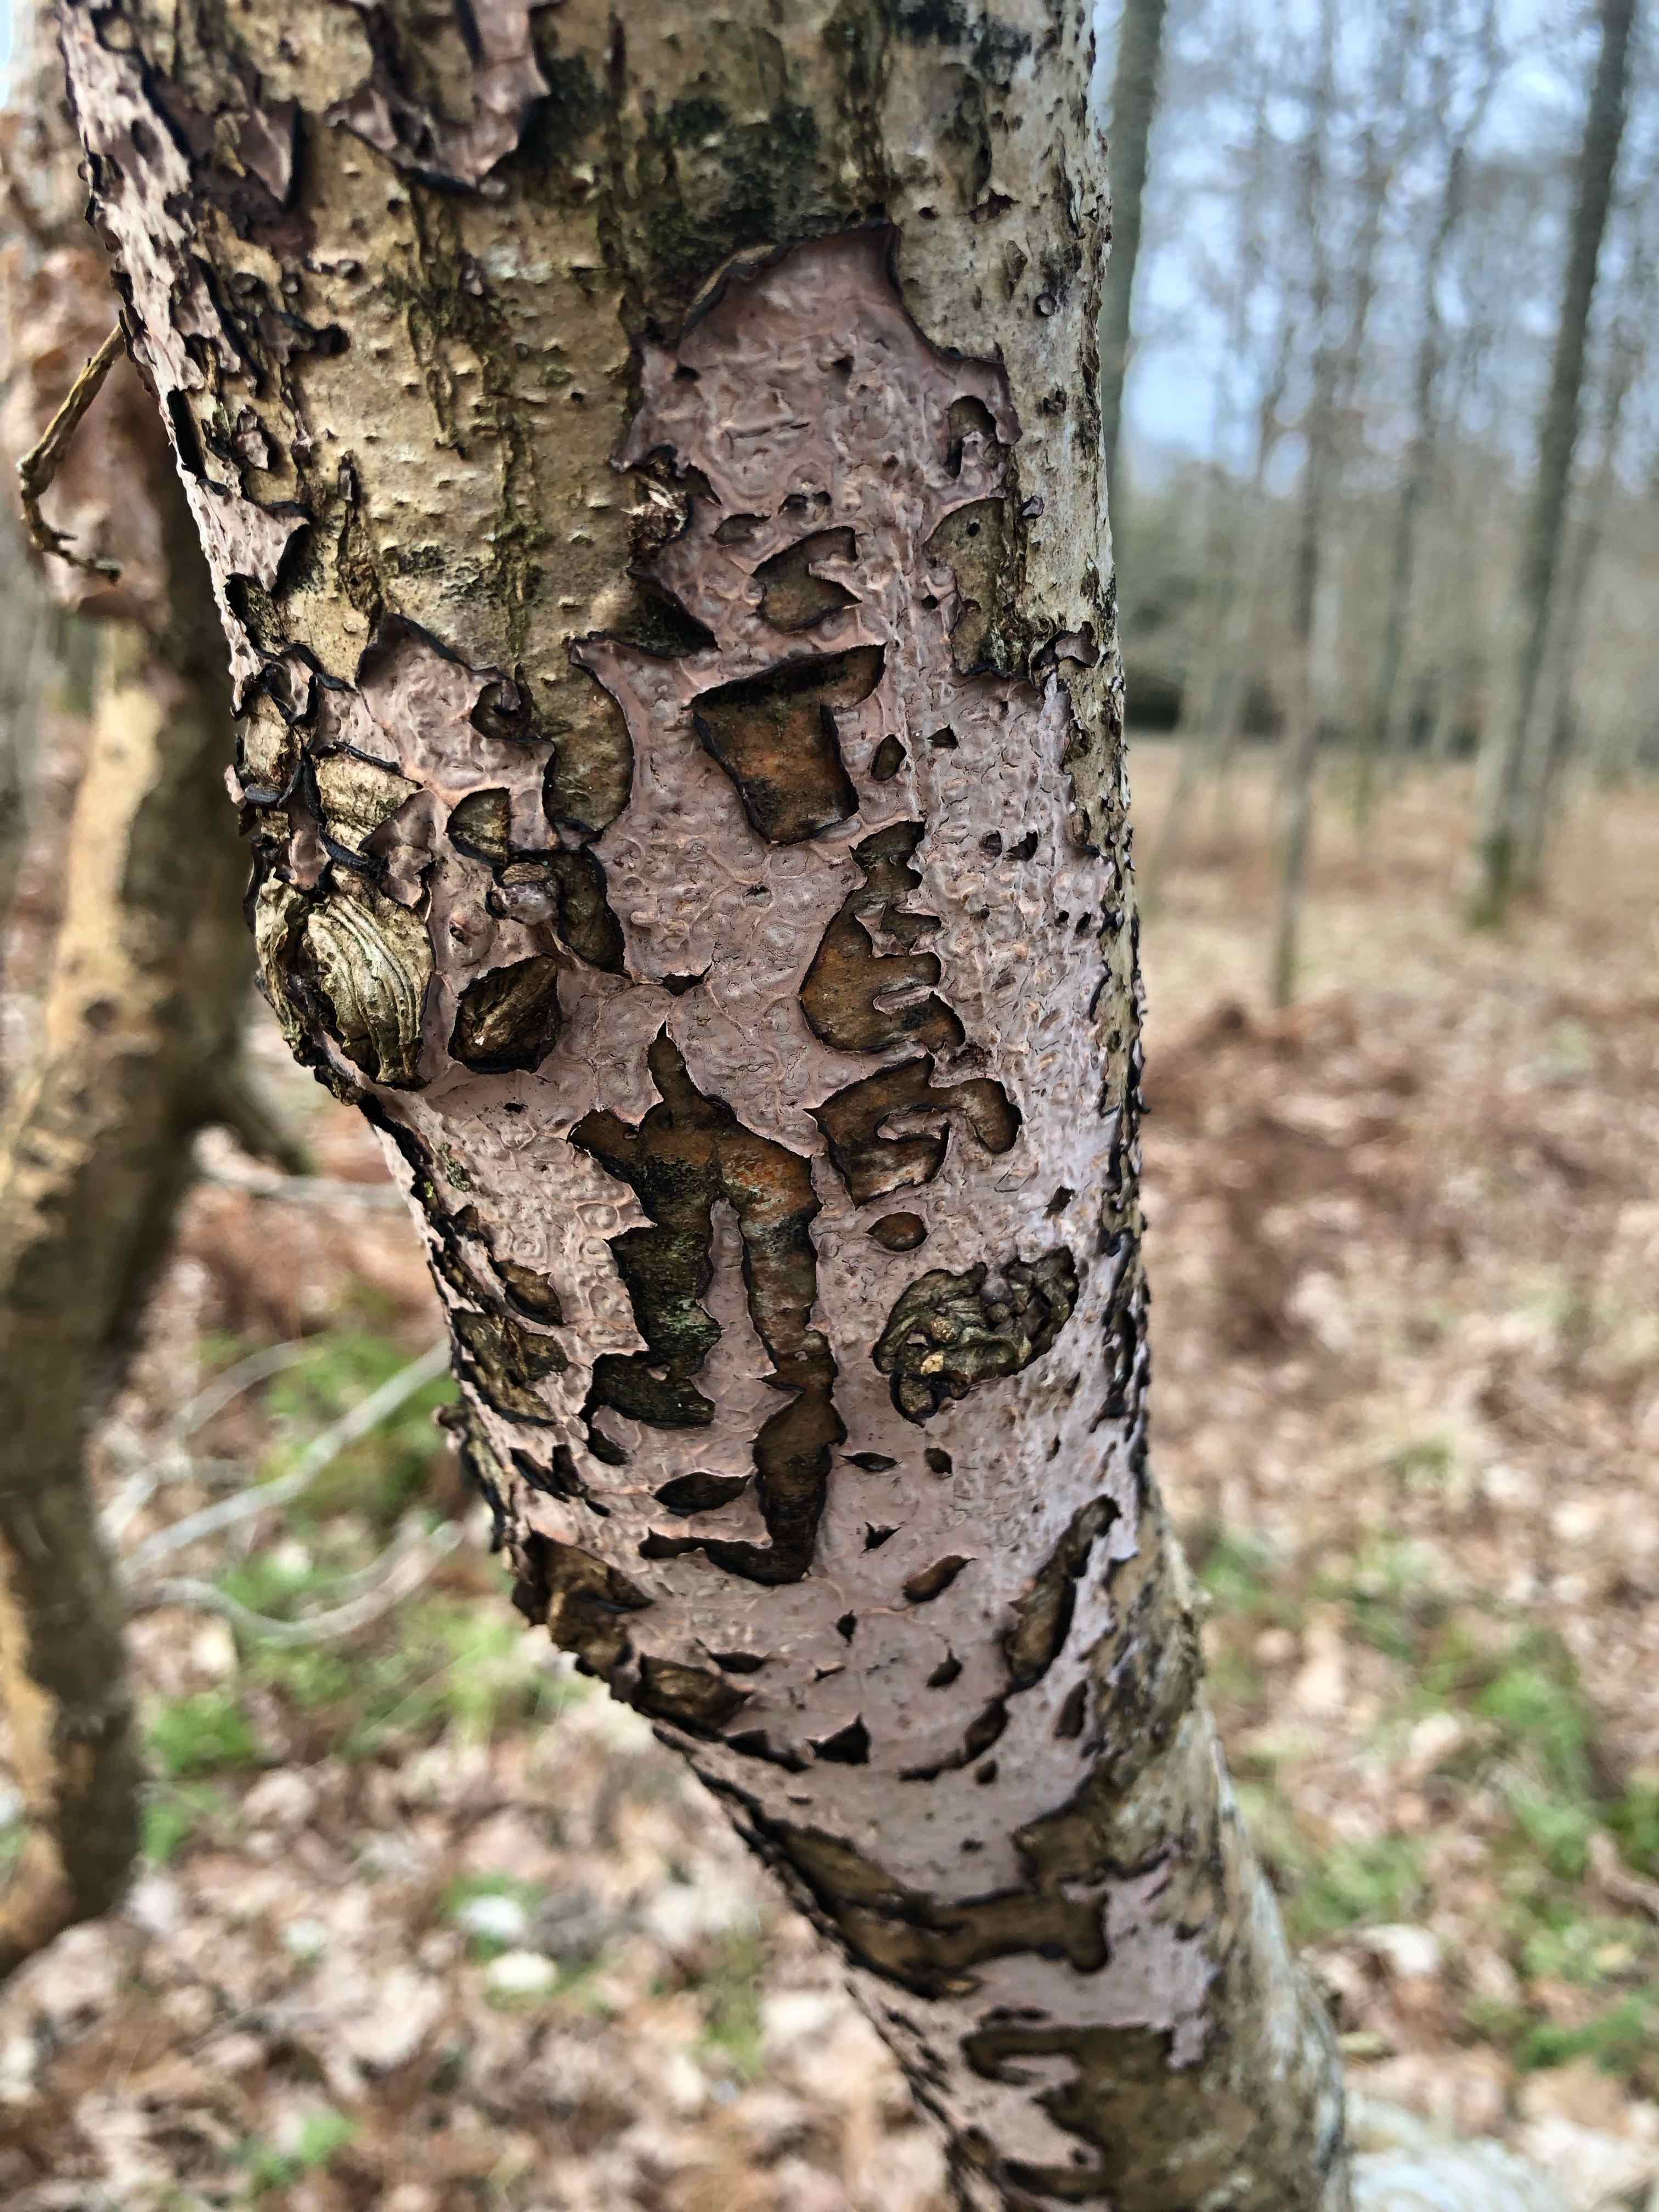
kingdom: Fungi
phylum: Basidiomycota
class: Agaricomycetes
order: Russulales
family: Peniophoraceae
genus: Peniophora
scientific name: Peniophora quercina
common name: ege-voksskind
